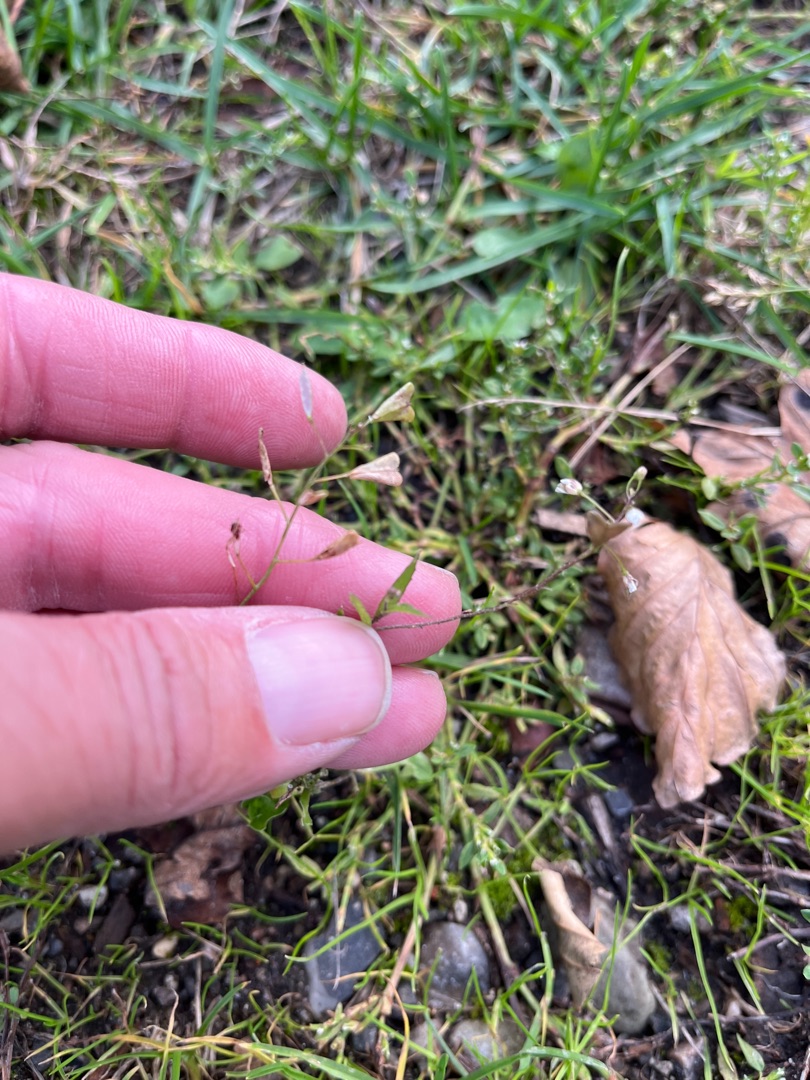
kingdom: Plantae
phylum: Tracheophyta
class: Magnoliopsida
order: Brassicales
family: Brassicaceae
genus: Capsella
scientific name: Capsella bursa-pastoris
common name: Hyrdetaske
